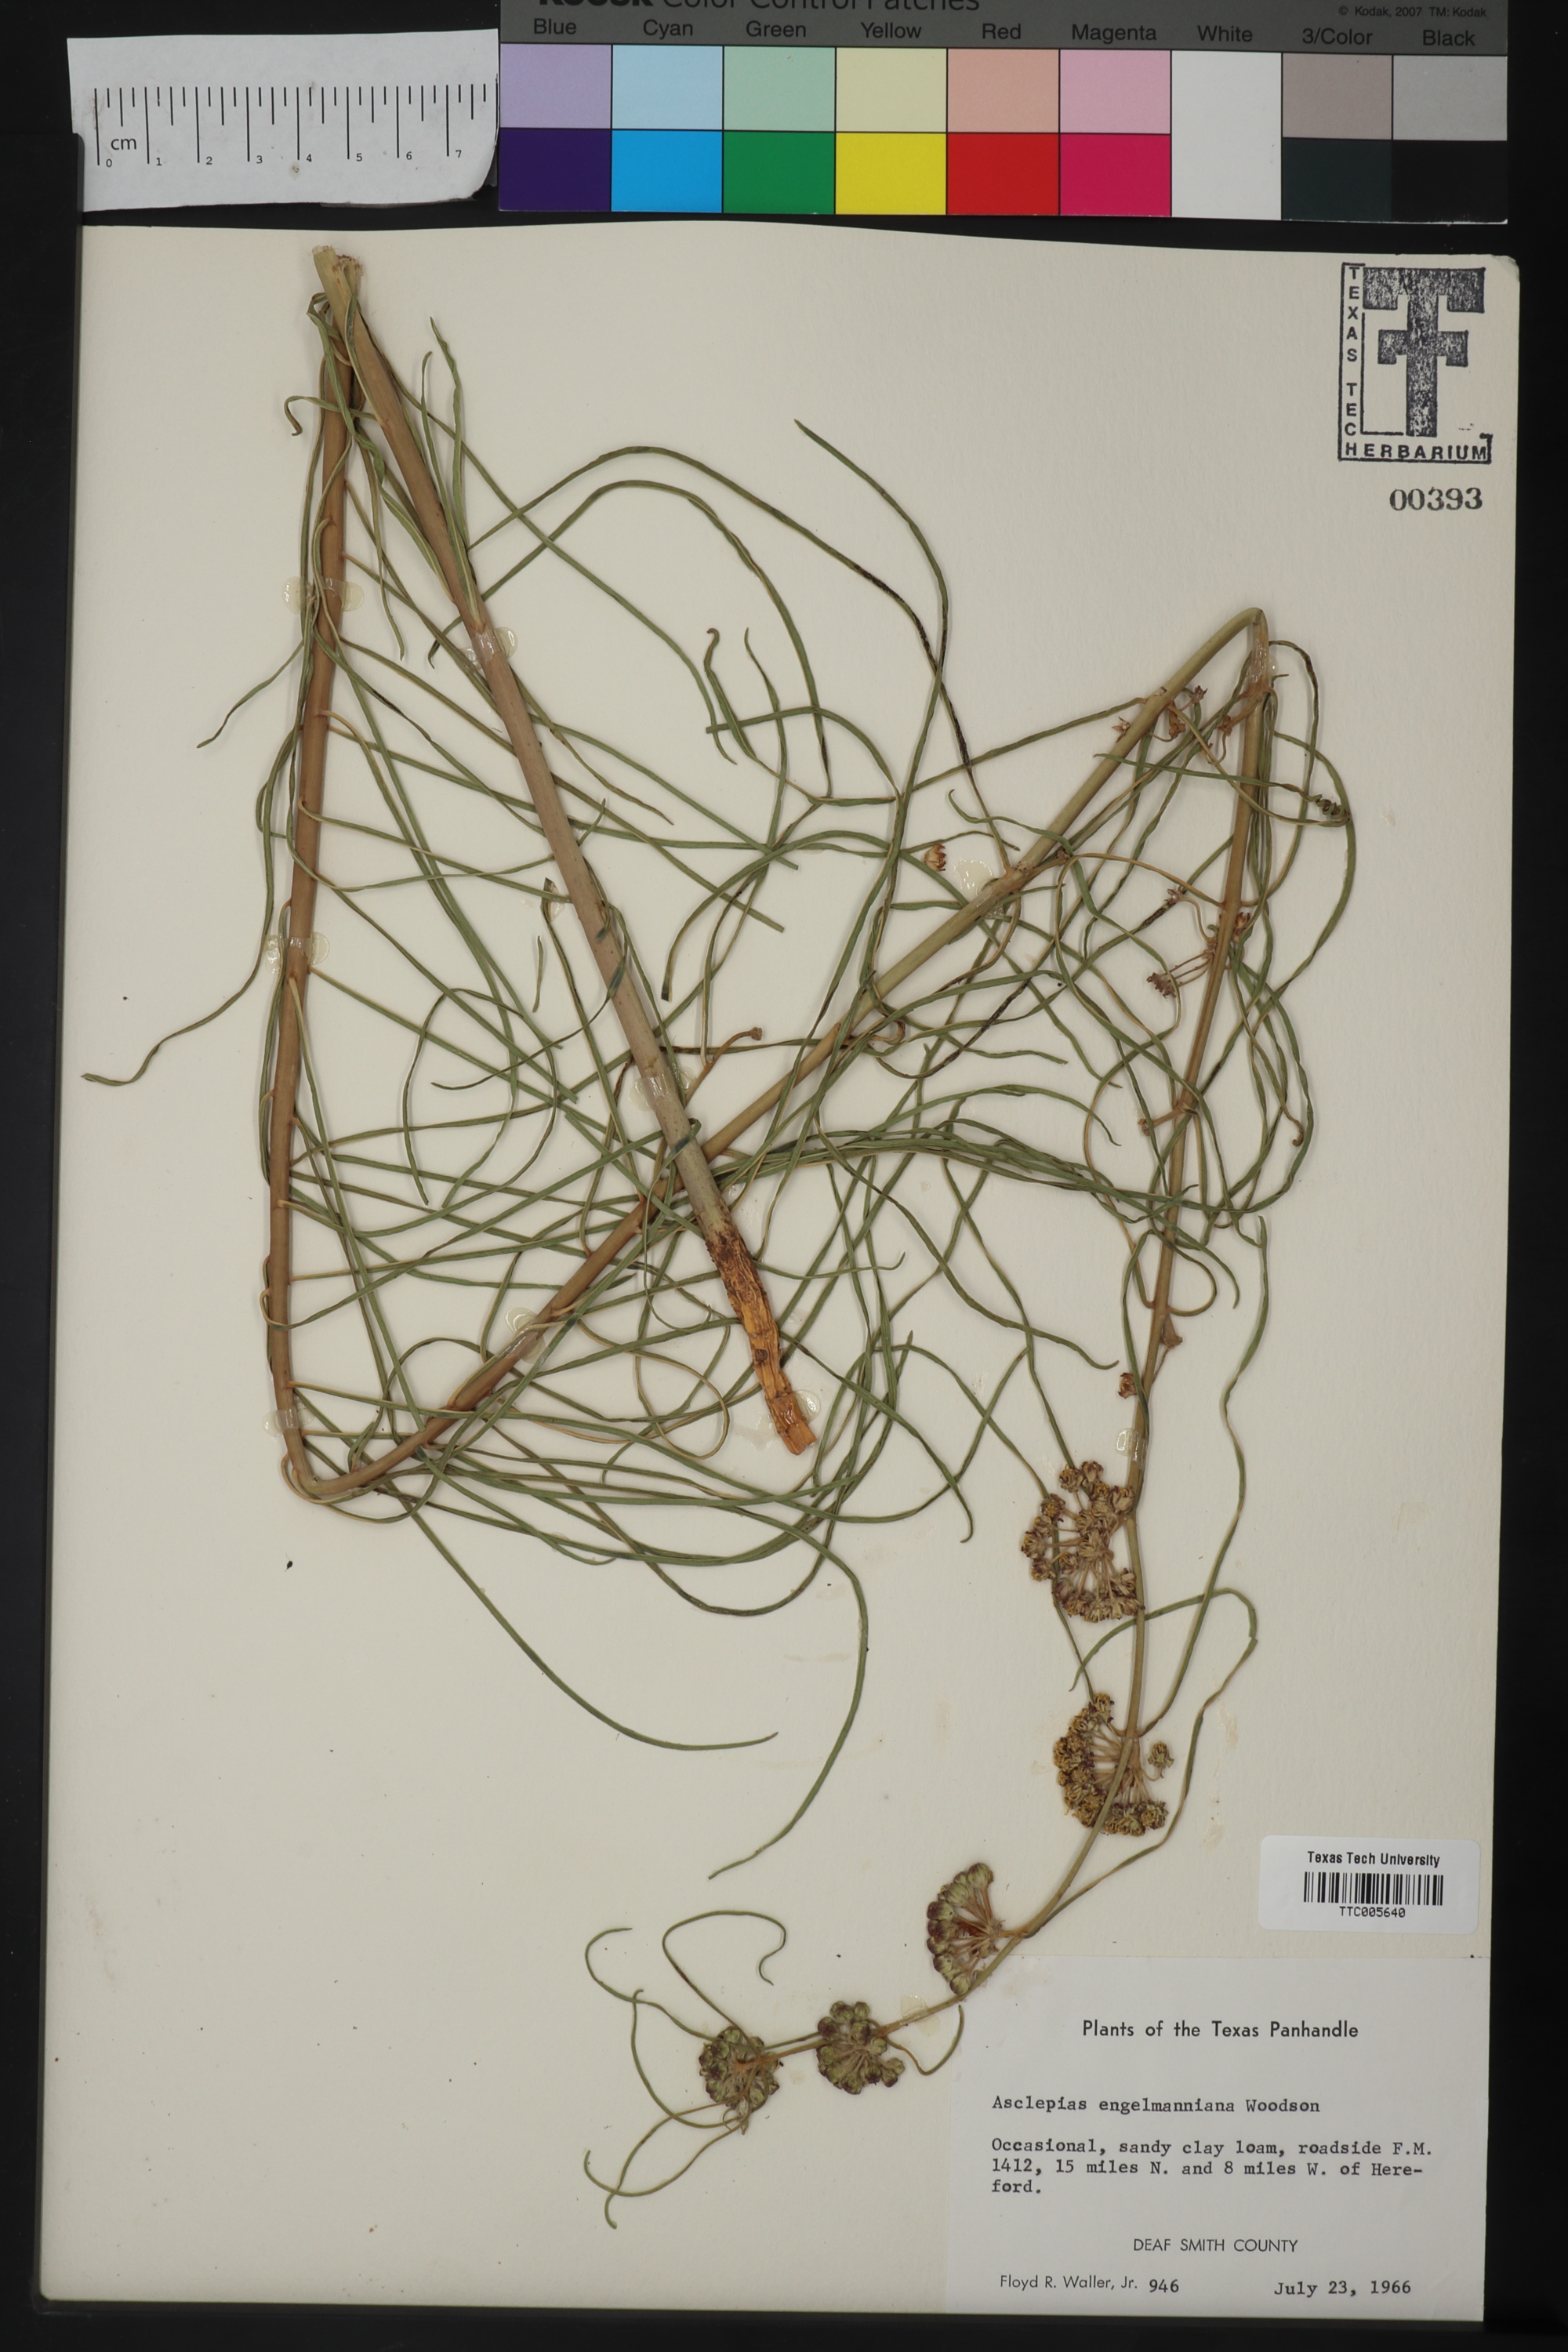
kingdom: Plantae
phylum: Tracheophyta
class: Magnoliopsida
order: Gentianales
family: Apocynaceae
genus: Asclepias
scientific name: Asclepias engelmanniana
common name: Engelmann's milkweed
